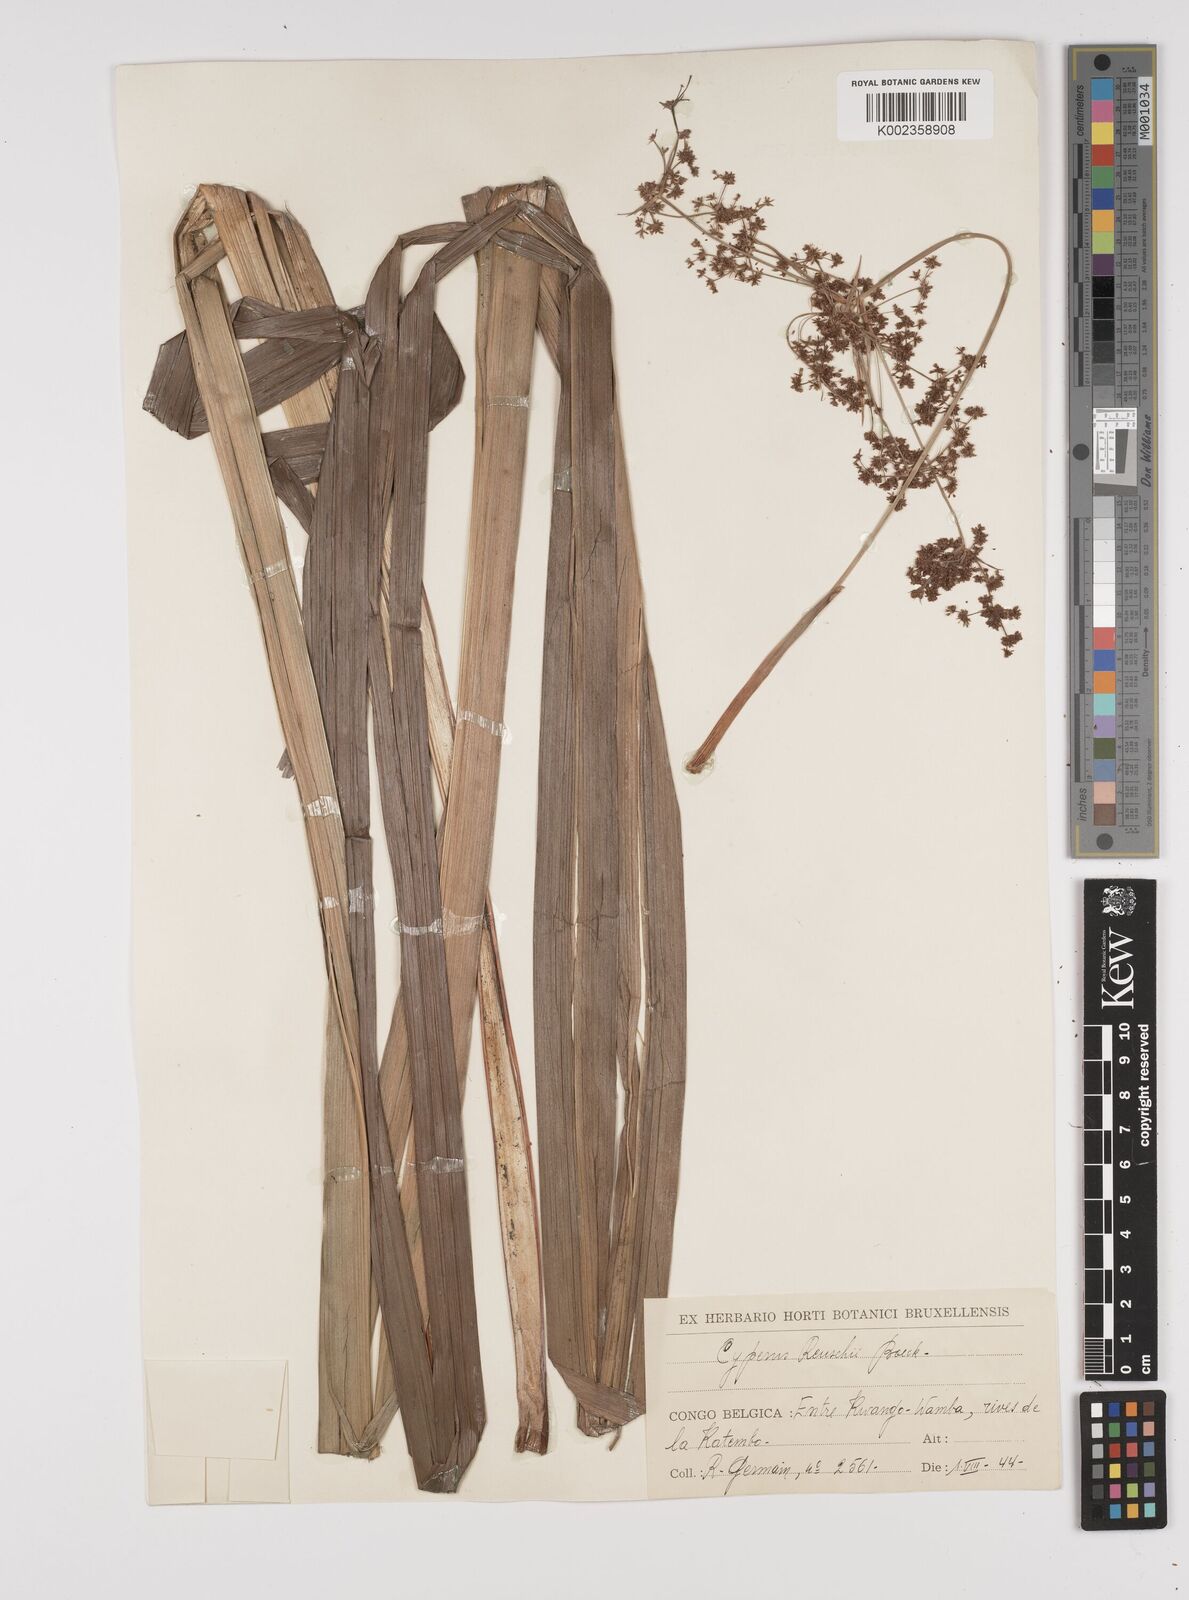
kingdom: Plantae
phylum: Tracheophyta
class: Liliopsida
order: Poales
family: Cyperaceae
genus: Cyperus
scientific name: Cyperus renschii
